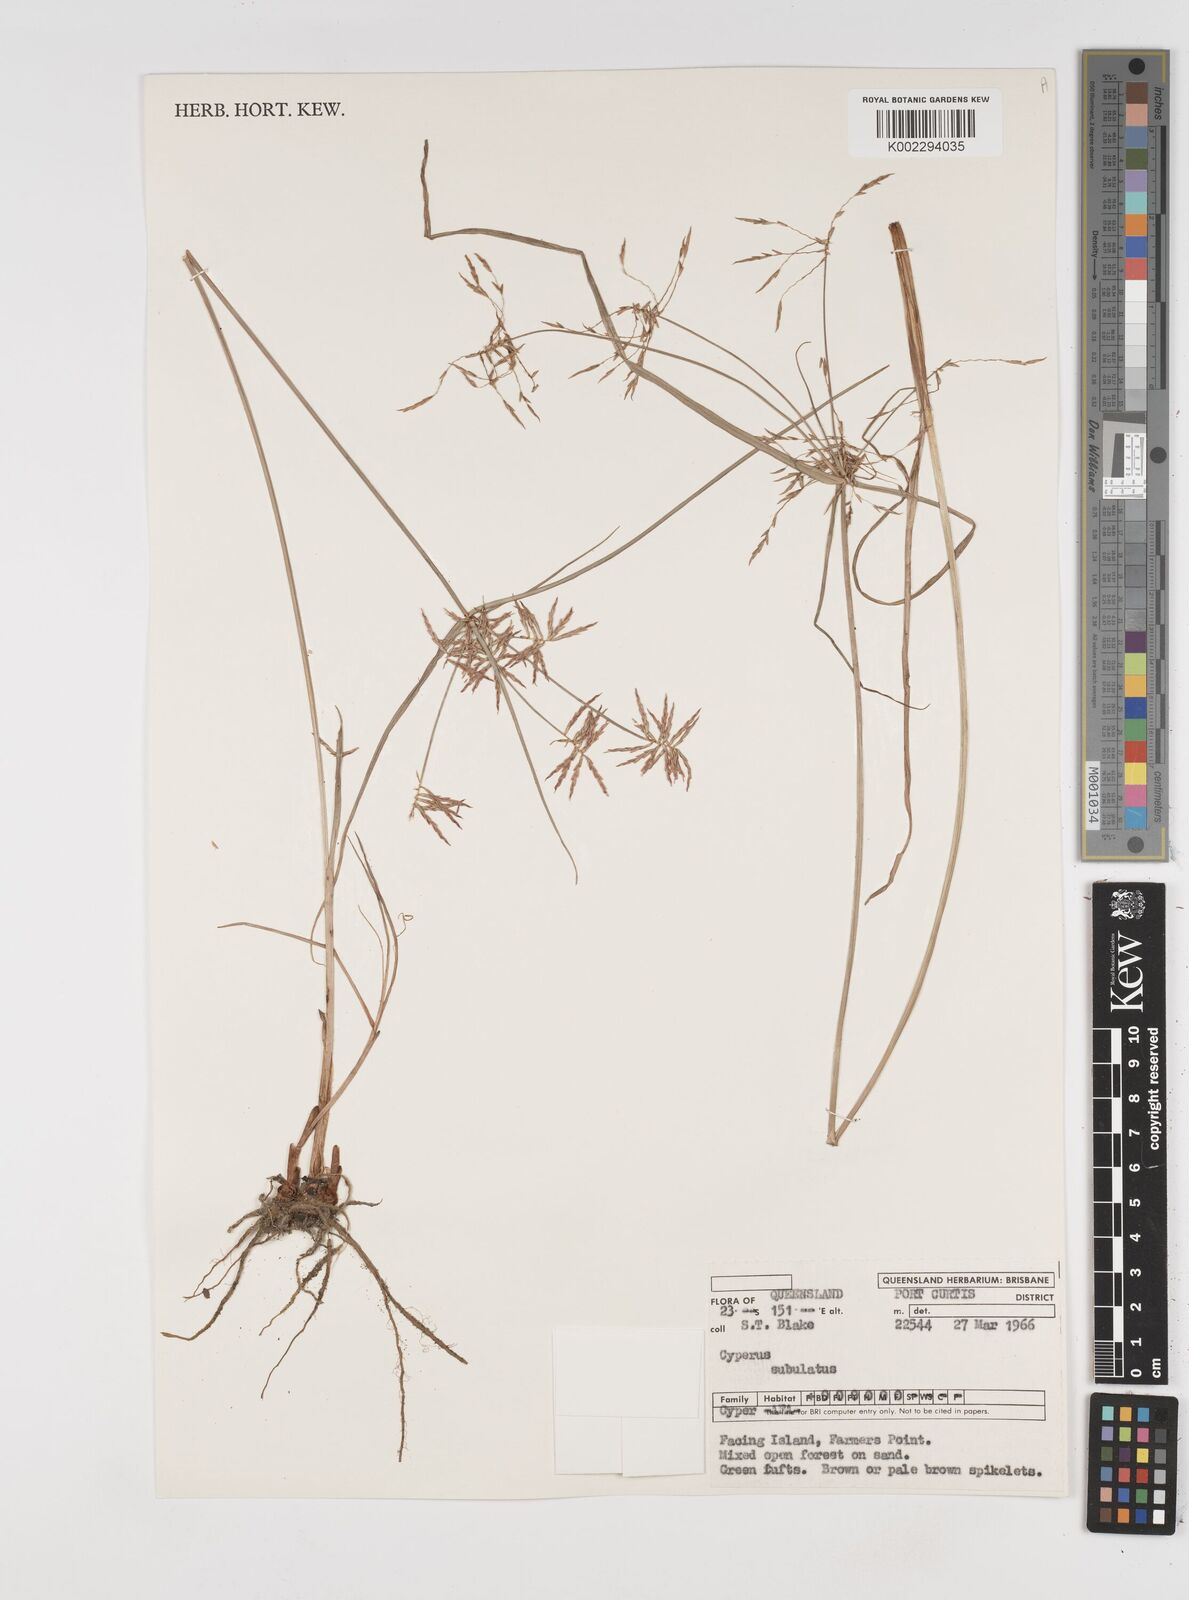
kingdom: Plantae
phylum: Tracheophyta
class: Liliopsida
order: Poales
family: Cyperaceae
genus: Cyperus
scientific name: Cyperus subulatus
